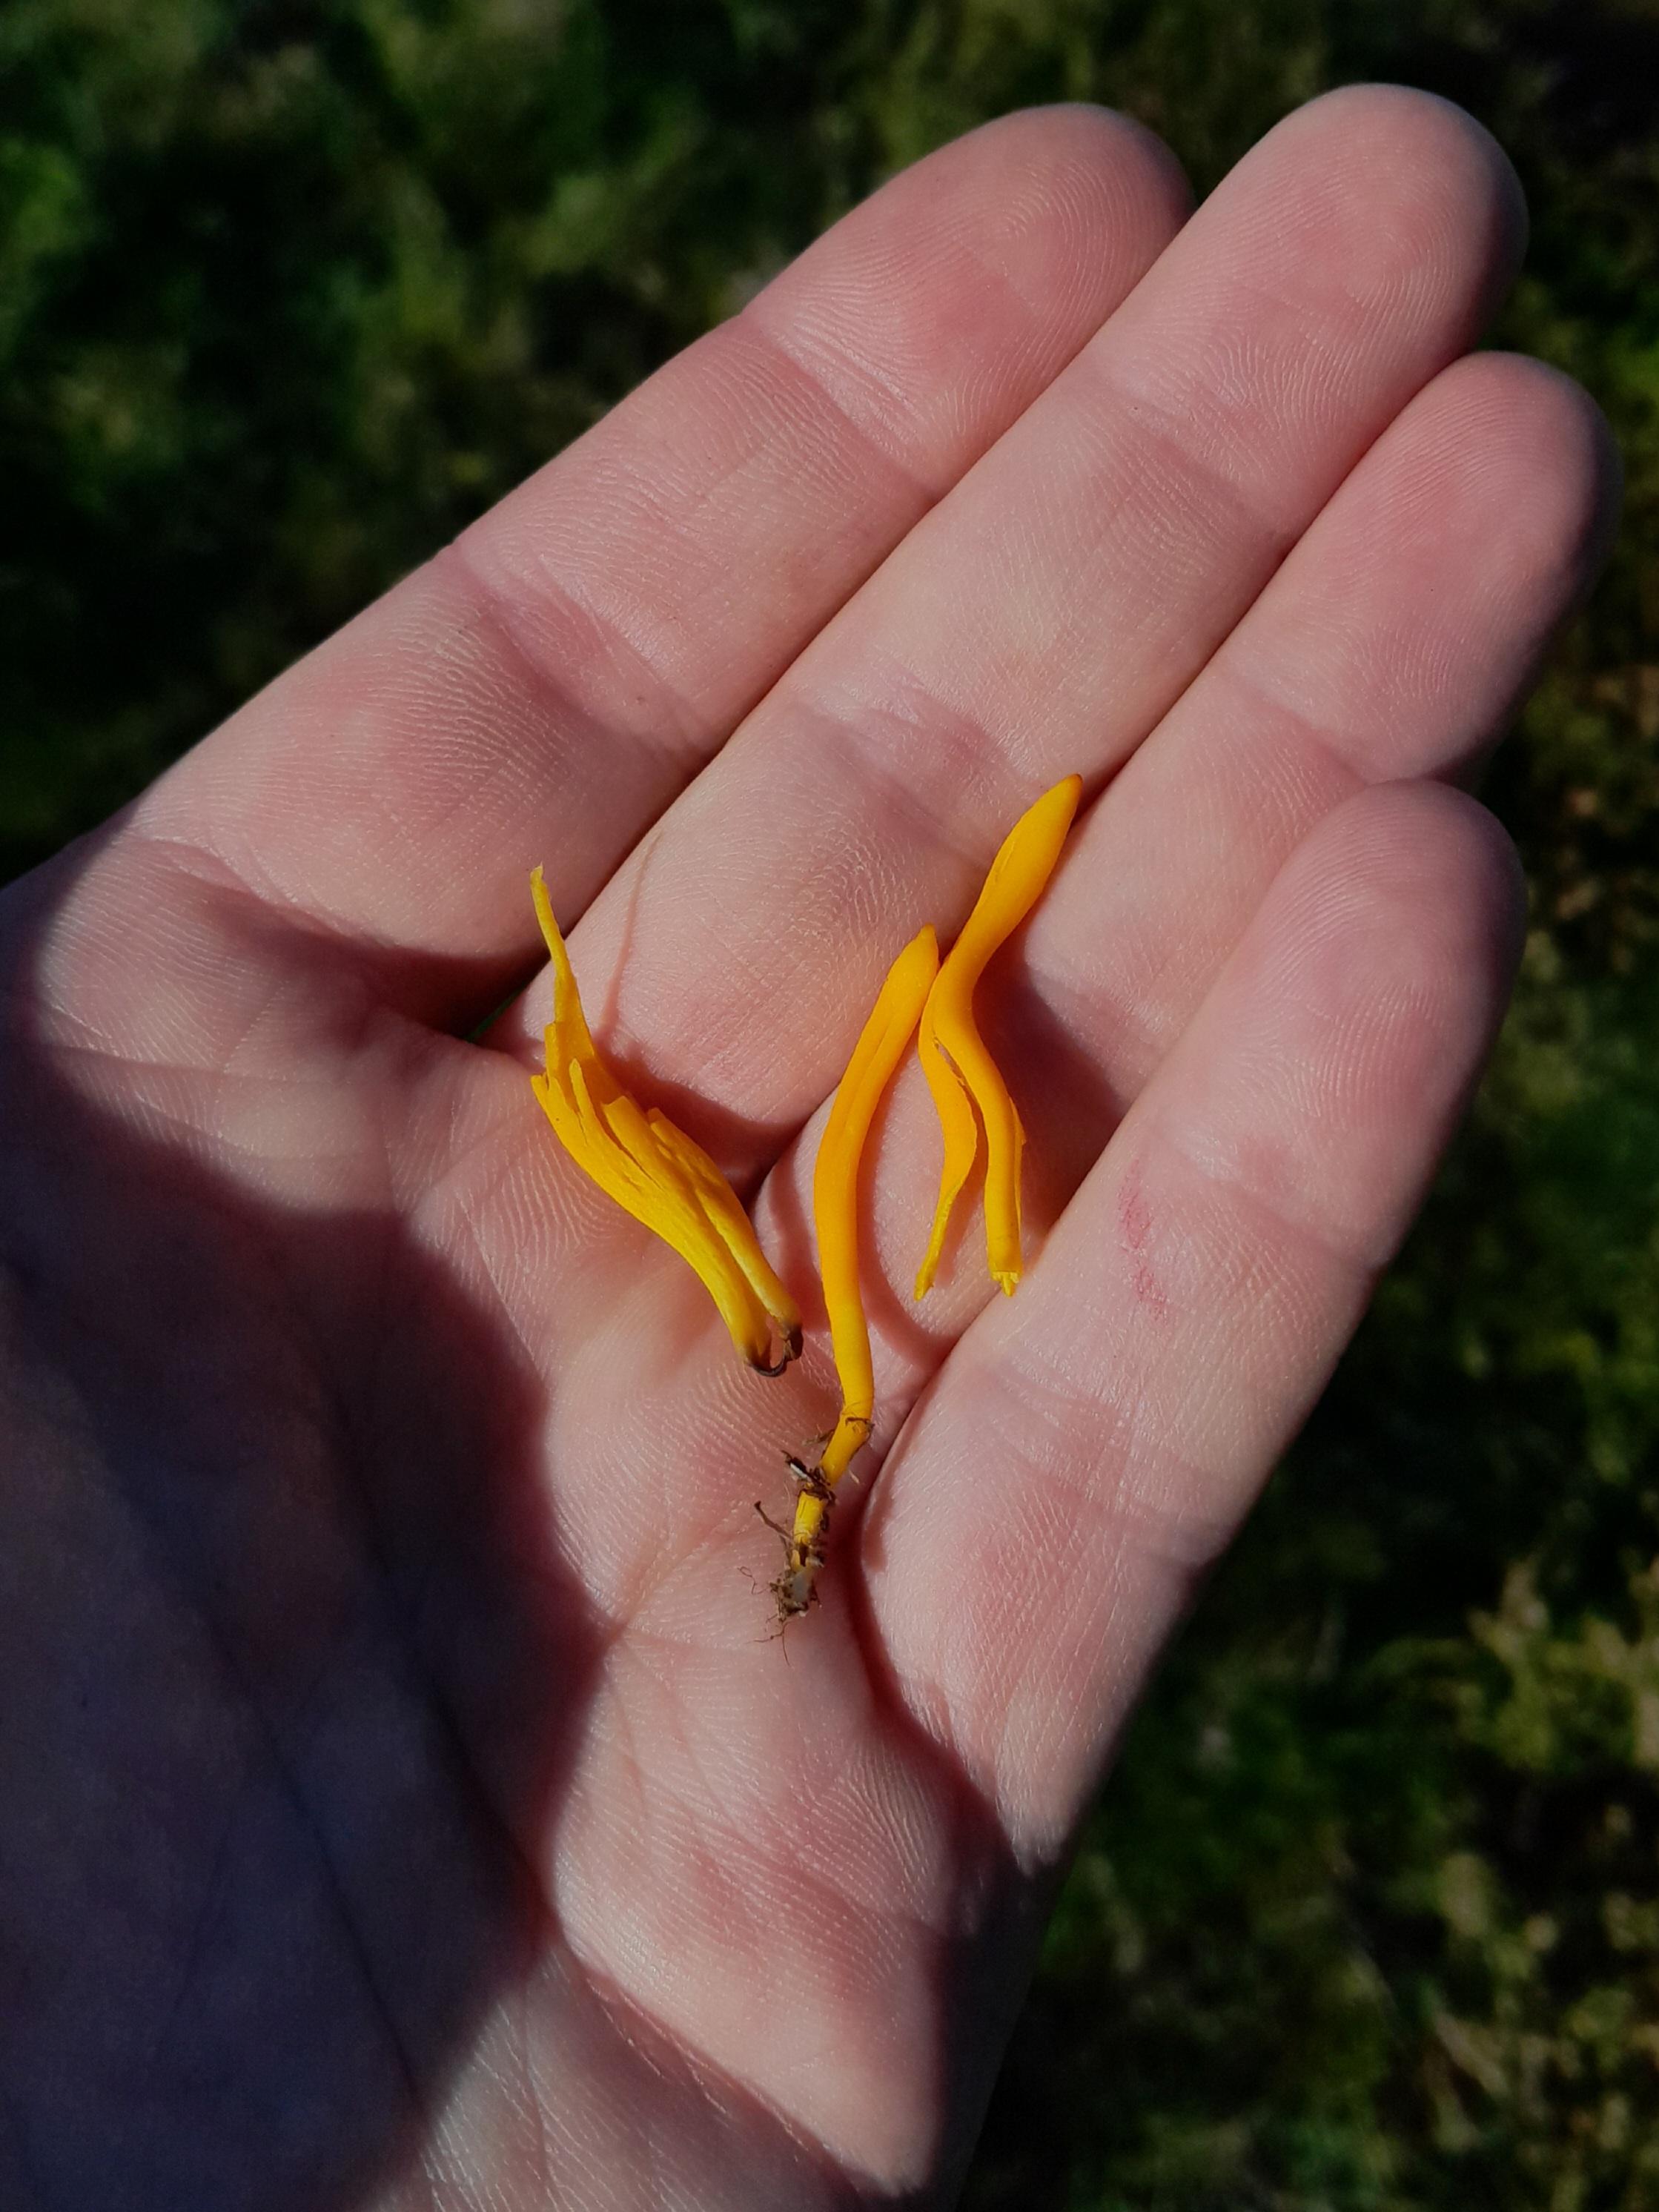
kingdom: Fungi
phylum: Basidiomycota
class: Agaricomycetes
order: Agaricales
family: Clavariaceae
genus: Clavulinopsis
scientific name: Clavulinopsis
